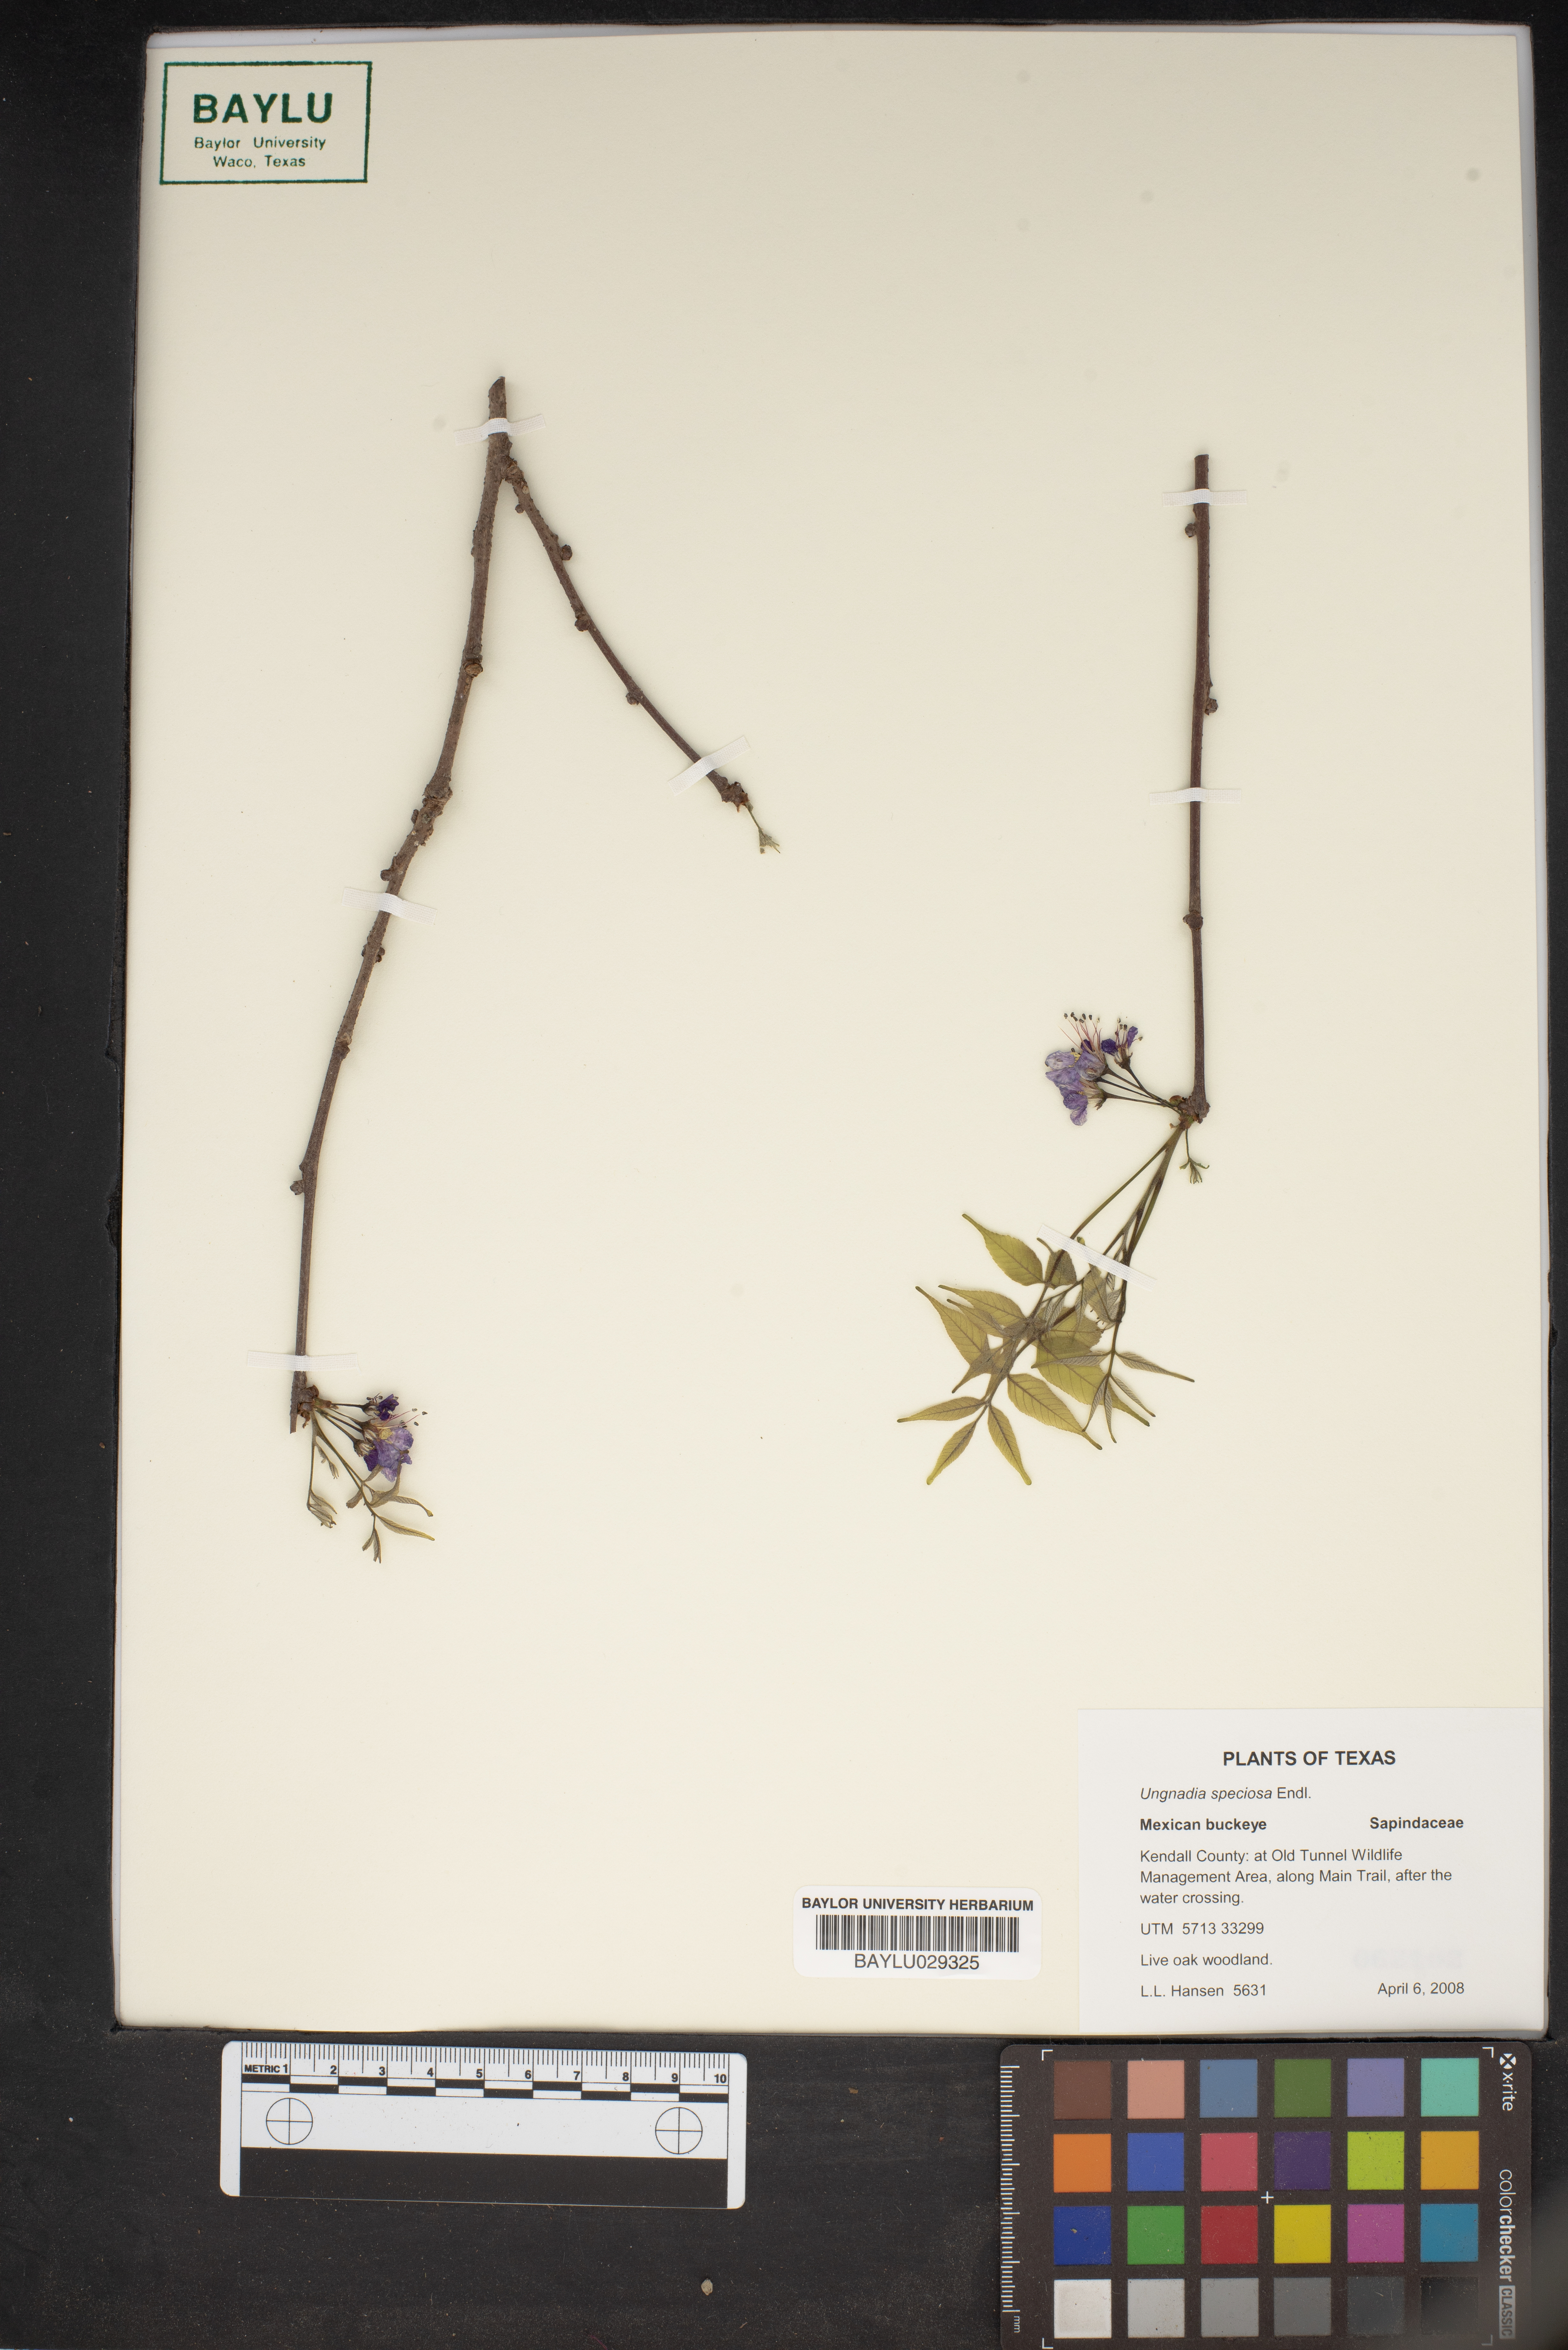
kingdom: Plantae
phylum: Tracheophyta
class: Magnoliopsida
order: Sapindales
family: Sapindaceae
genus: Ungnadia
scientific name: Ungnadia speciosa
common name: Texas-buckeye
